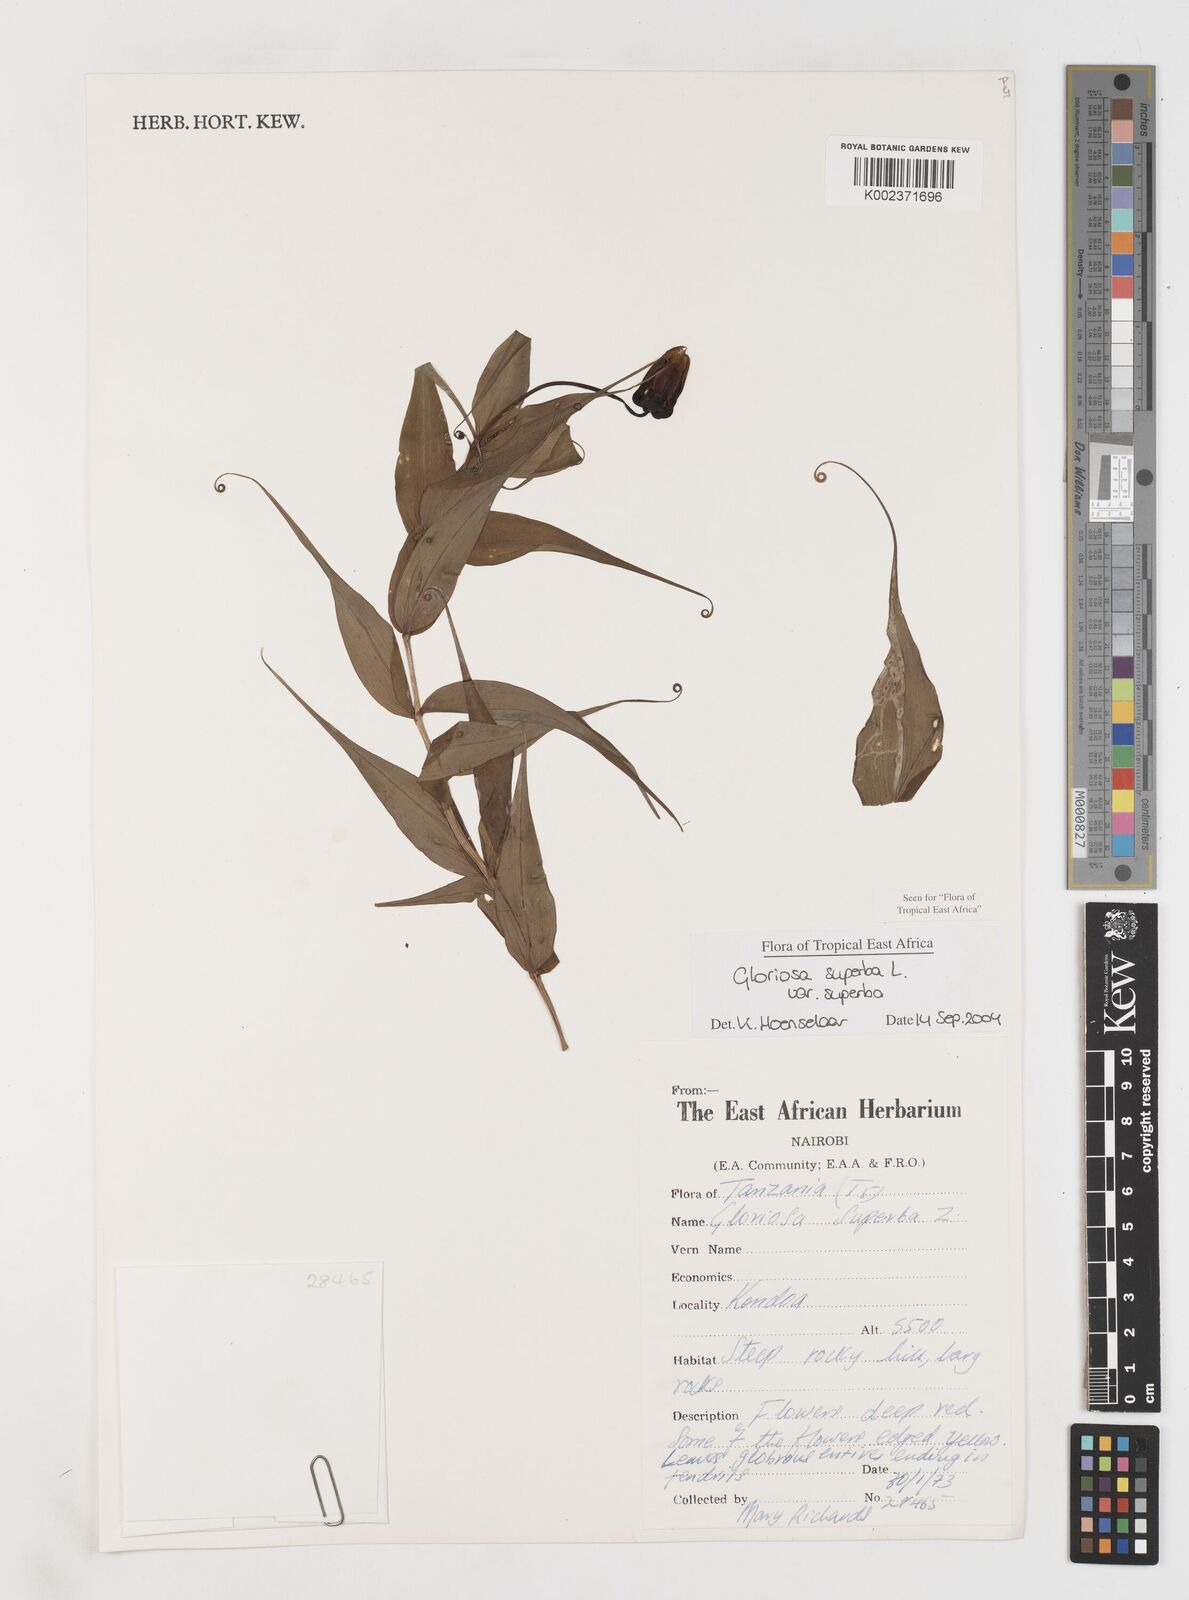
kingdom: Plantae
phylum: Tracheophyta
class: Liliopsida
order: Liliales
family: Colchicaceae
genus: Gloriosa
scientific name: Gloriosa simplex
